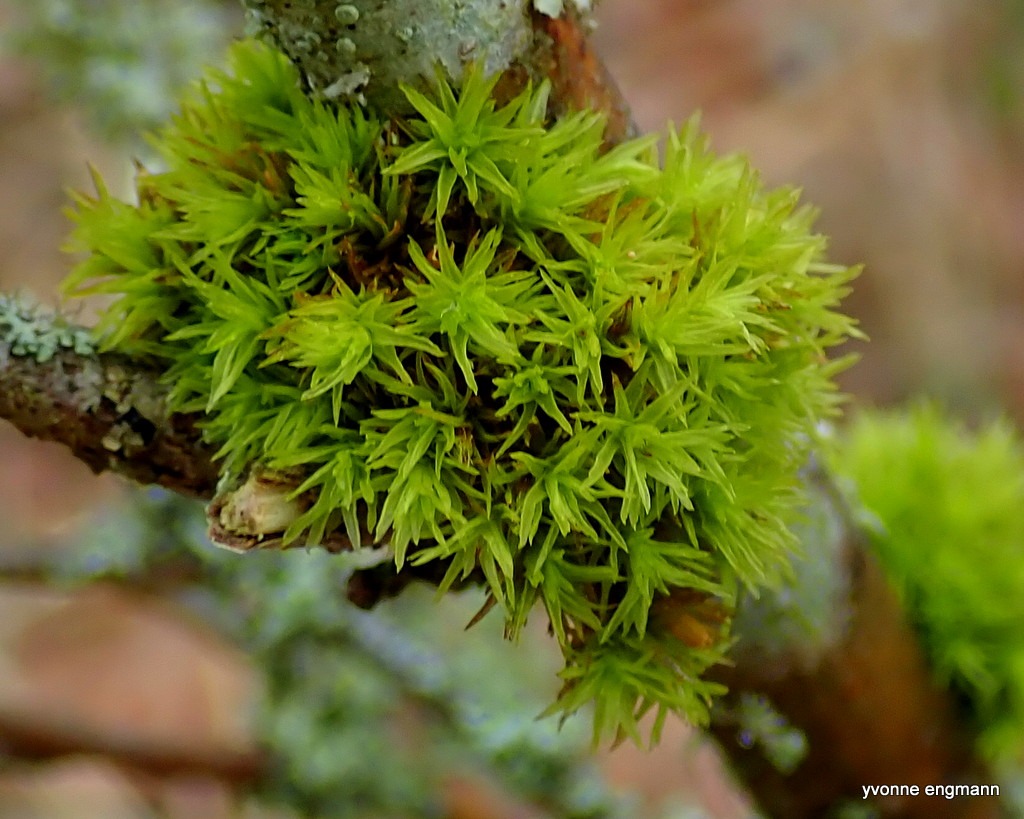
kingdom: Plantae
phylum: Bryophyta
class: Bryopsida
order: Orthotrichales
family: Orthotrichaceae
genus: Orthotrichum
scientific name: Orthotrichum
